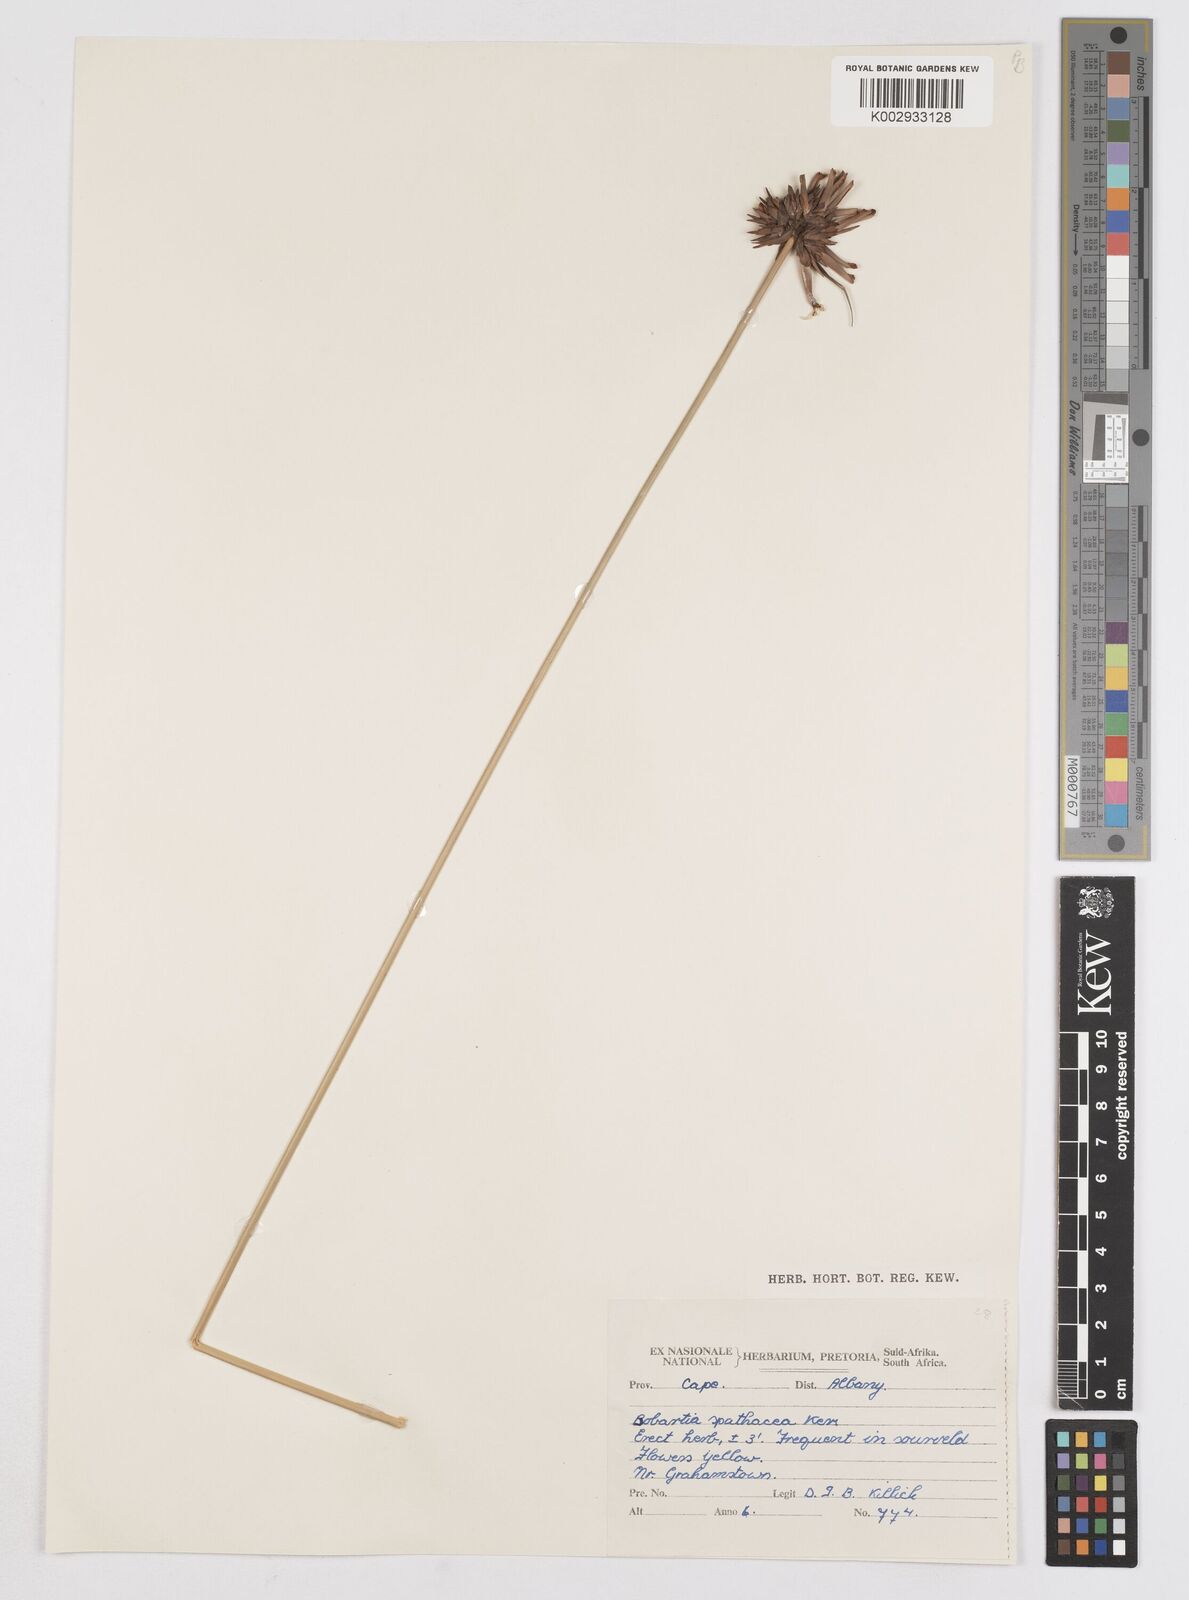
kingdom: Plantae
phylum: Tracheophyta
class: Liliopsida
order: Asparagales
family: Iridaceae
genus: Bobartia
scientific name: Bobartia indica
